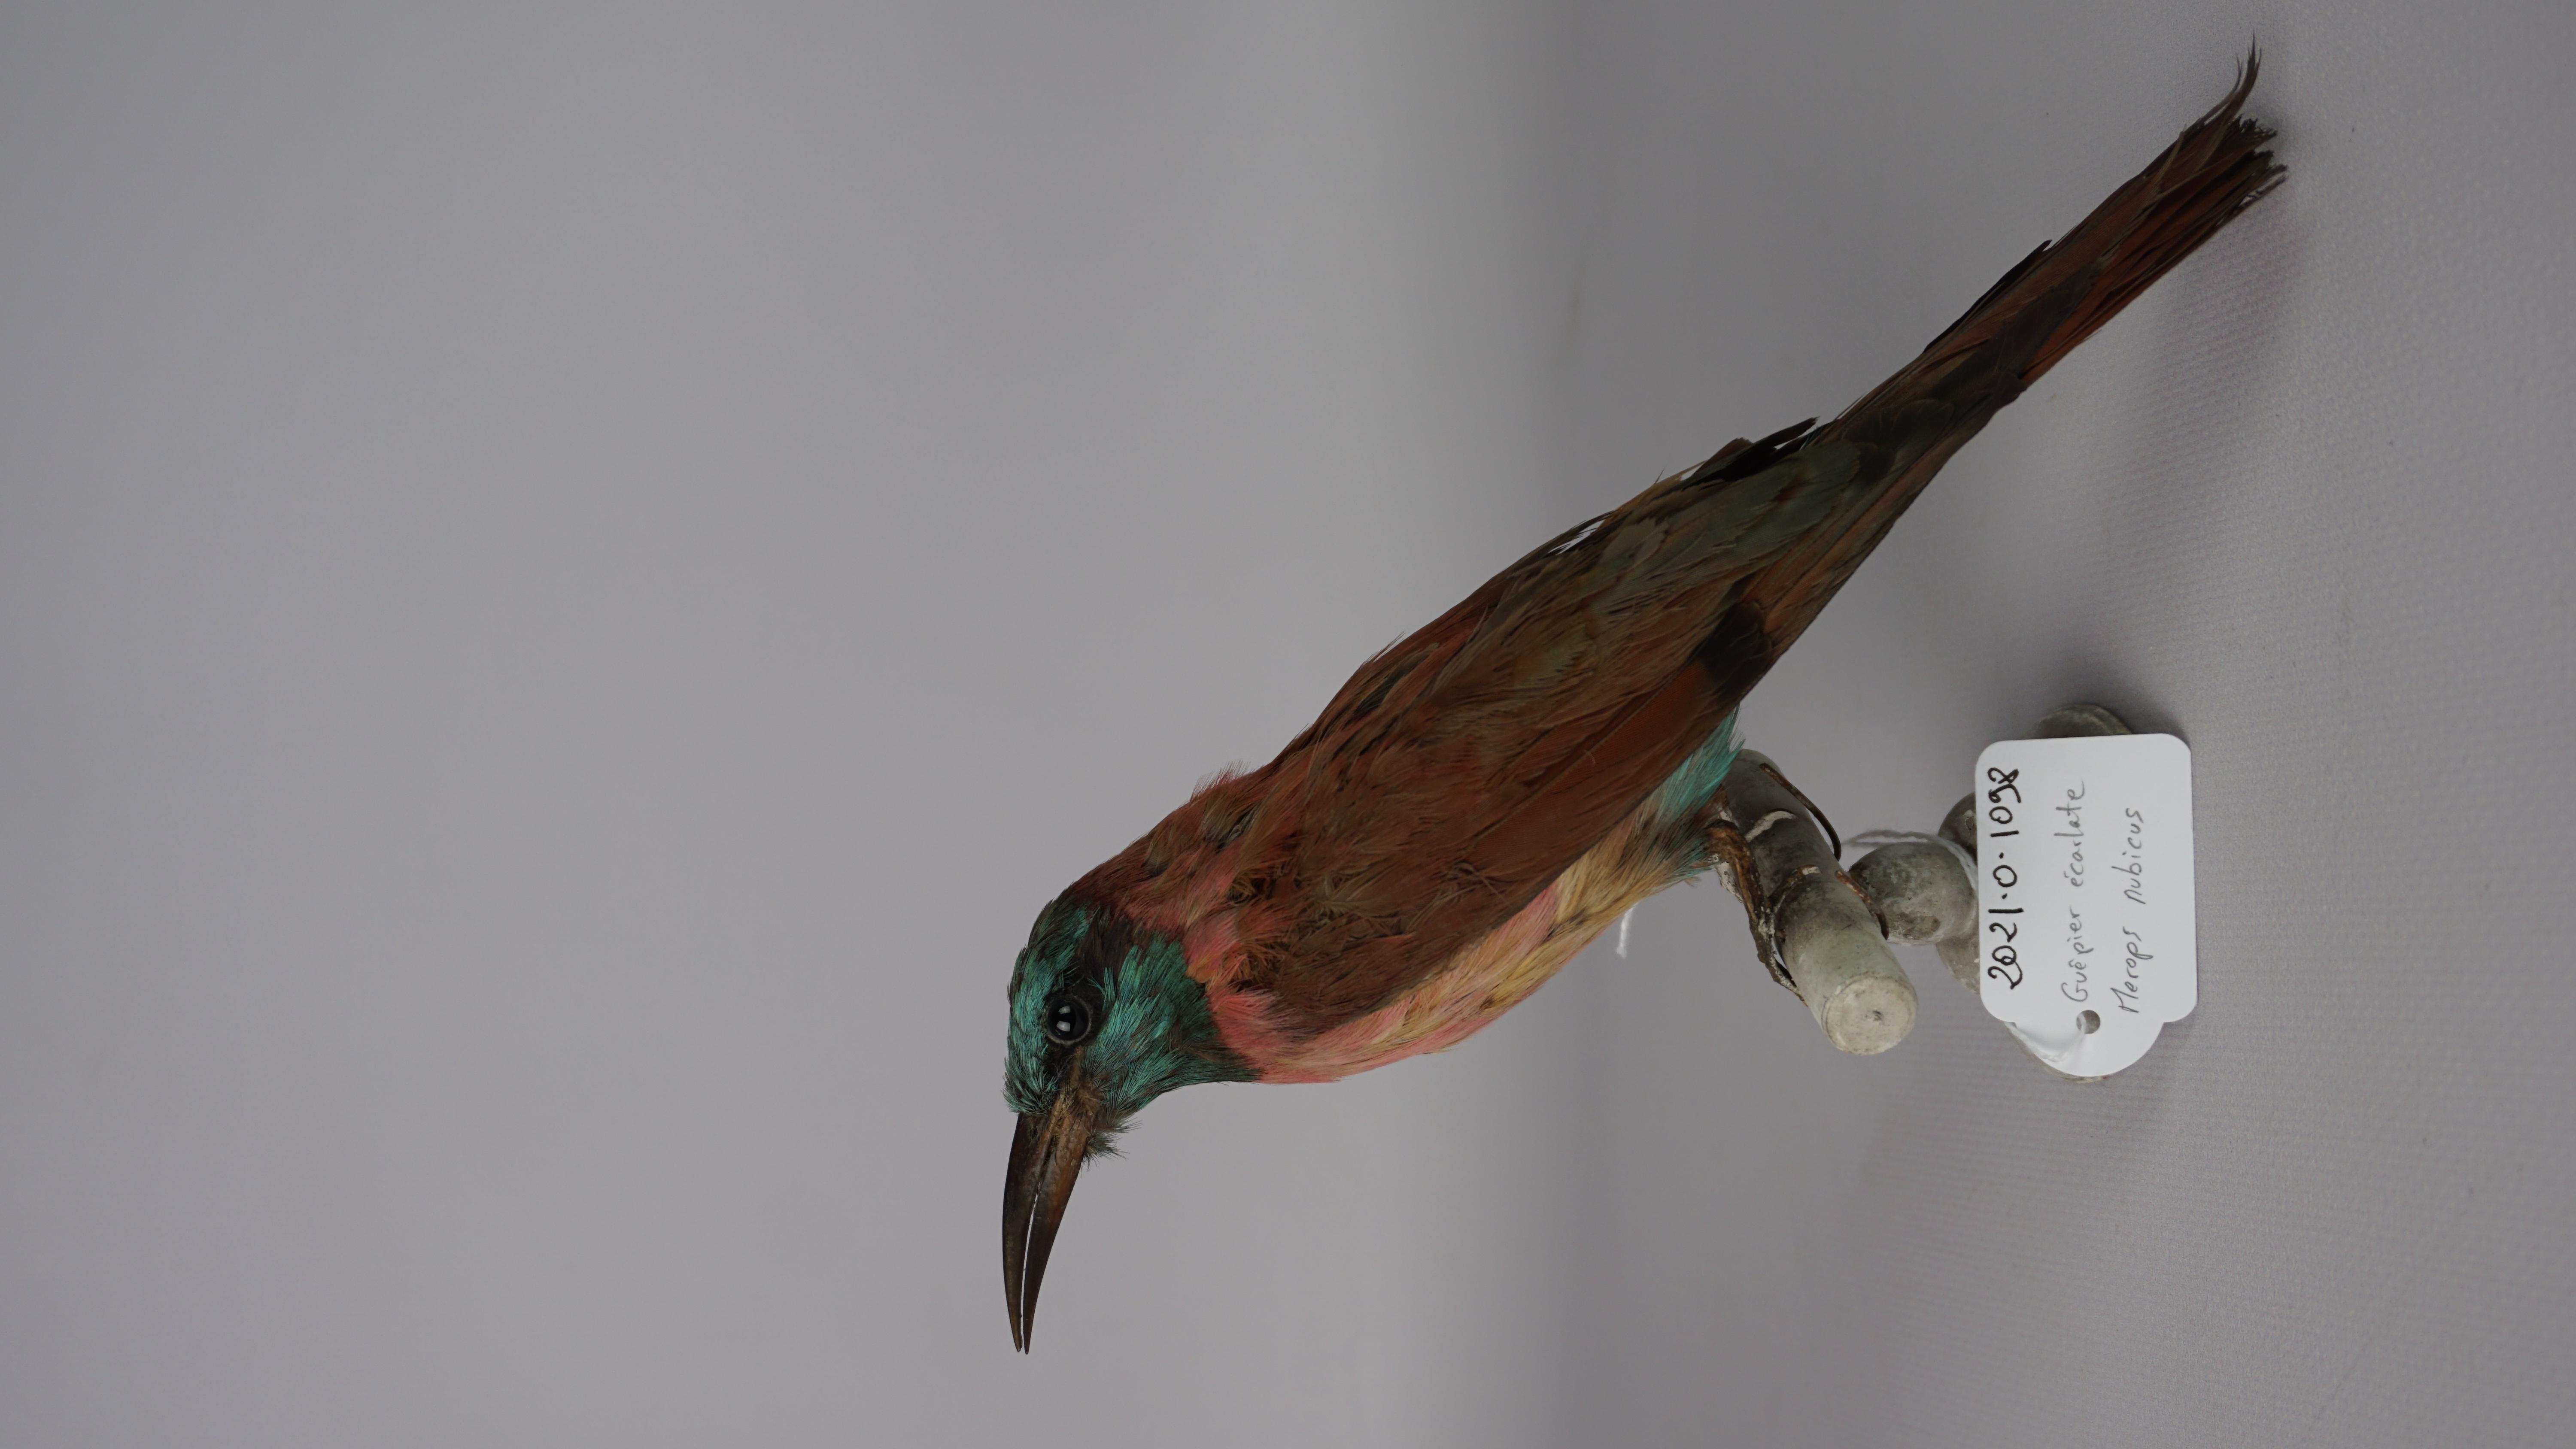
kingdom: Animalia
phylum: Chordata
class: Aves
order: Coraciiformes
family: Meropidae
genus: Merops
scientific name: Merops nubicus
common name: Northern carmine bee-eater
